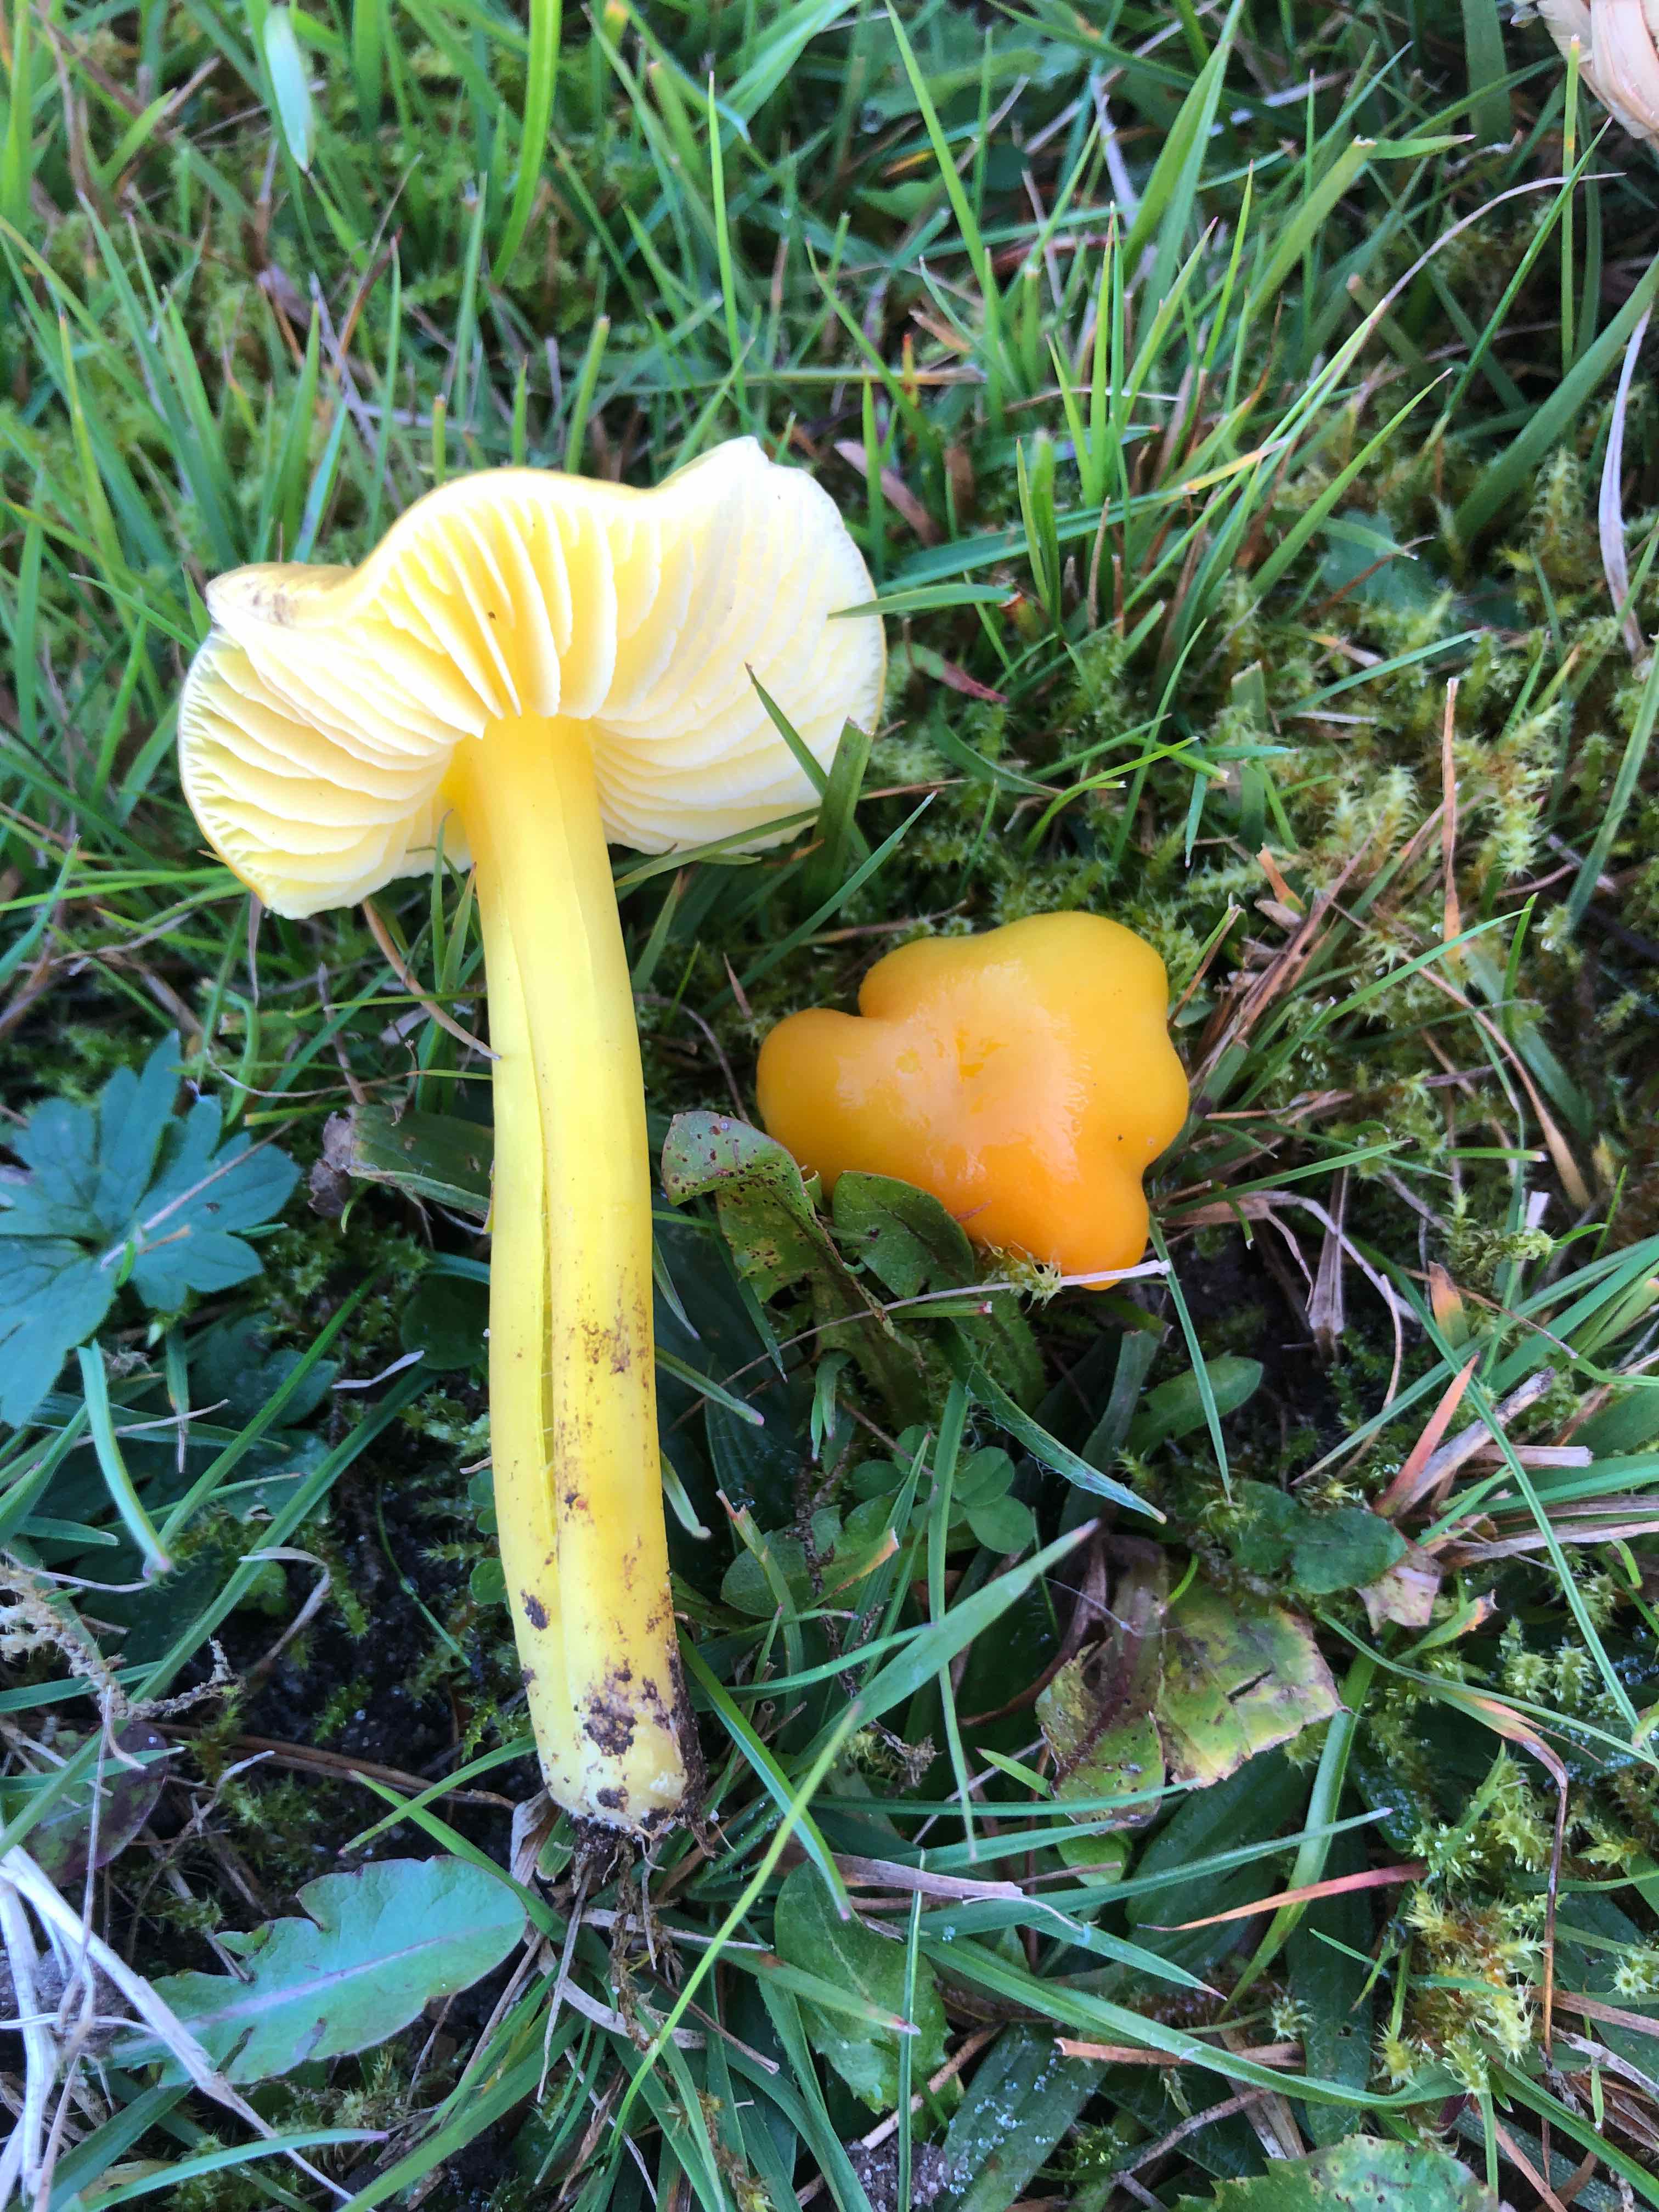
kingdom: Fungi
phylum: Basidiomycota
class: Agaricomycetes
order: Agaricales
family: Hygrophoraceae
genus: Hygrocybe
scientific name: Hygrocybe chlorophana
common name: gul vokshat
